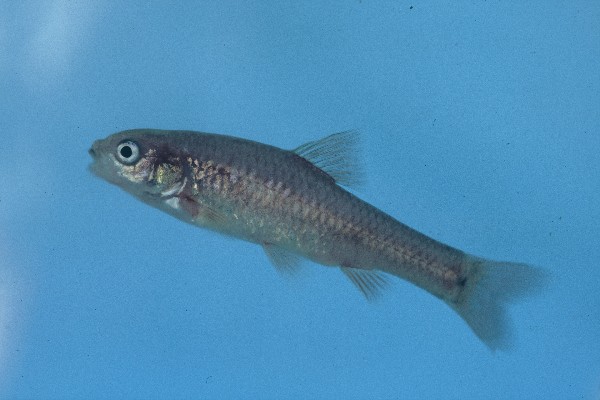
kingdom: Animalia
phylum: Chordata
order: Cypriniformes
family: Cyprinidae
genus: Enteromius
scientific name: Enteromius gurneyi
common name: Redtail barb
